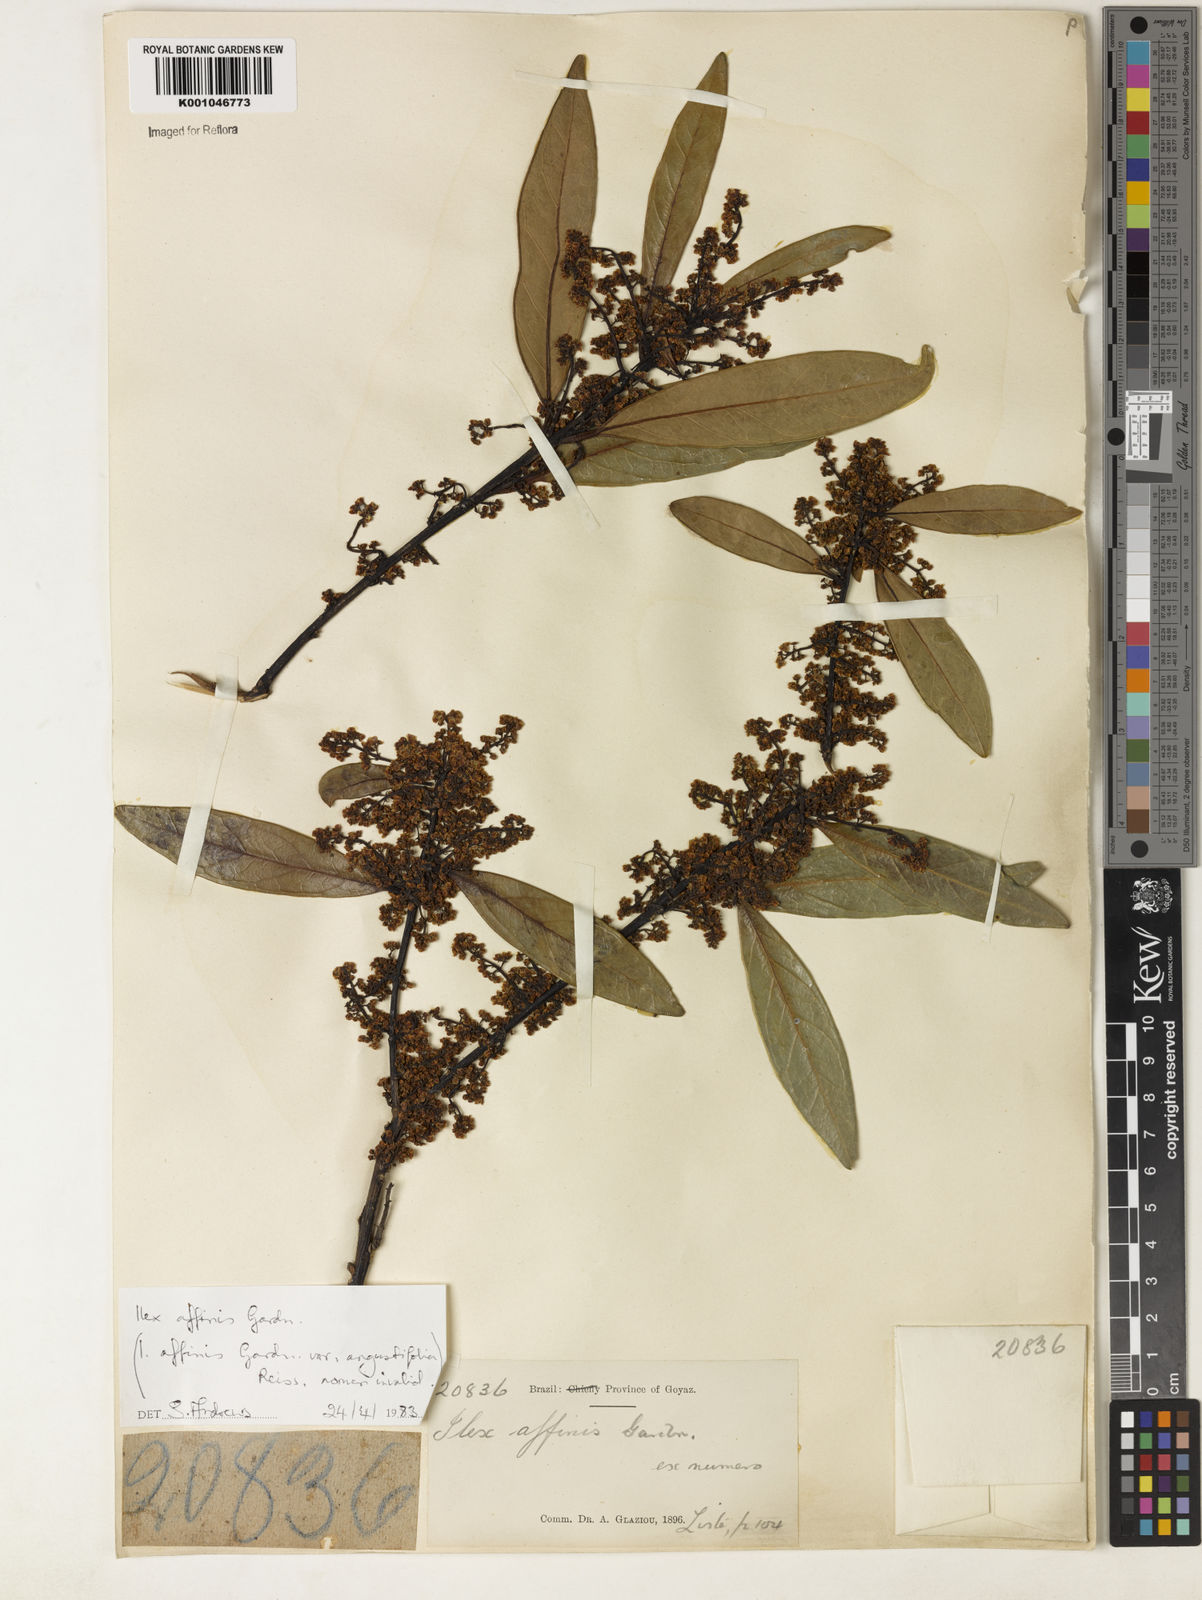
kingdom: Plantae
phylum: Tracheophyta
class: Magnoliopsida
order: Aquifoliales
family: Aquifoliaceae
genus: Ilex
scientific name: Ilex affinis
